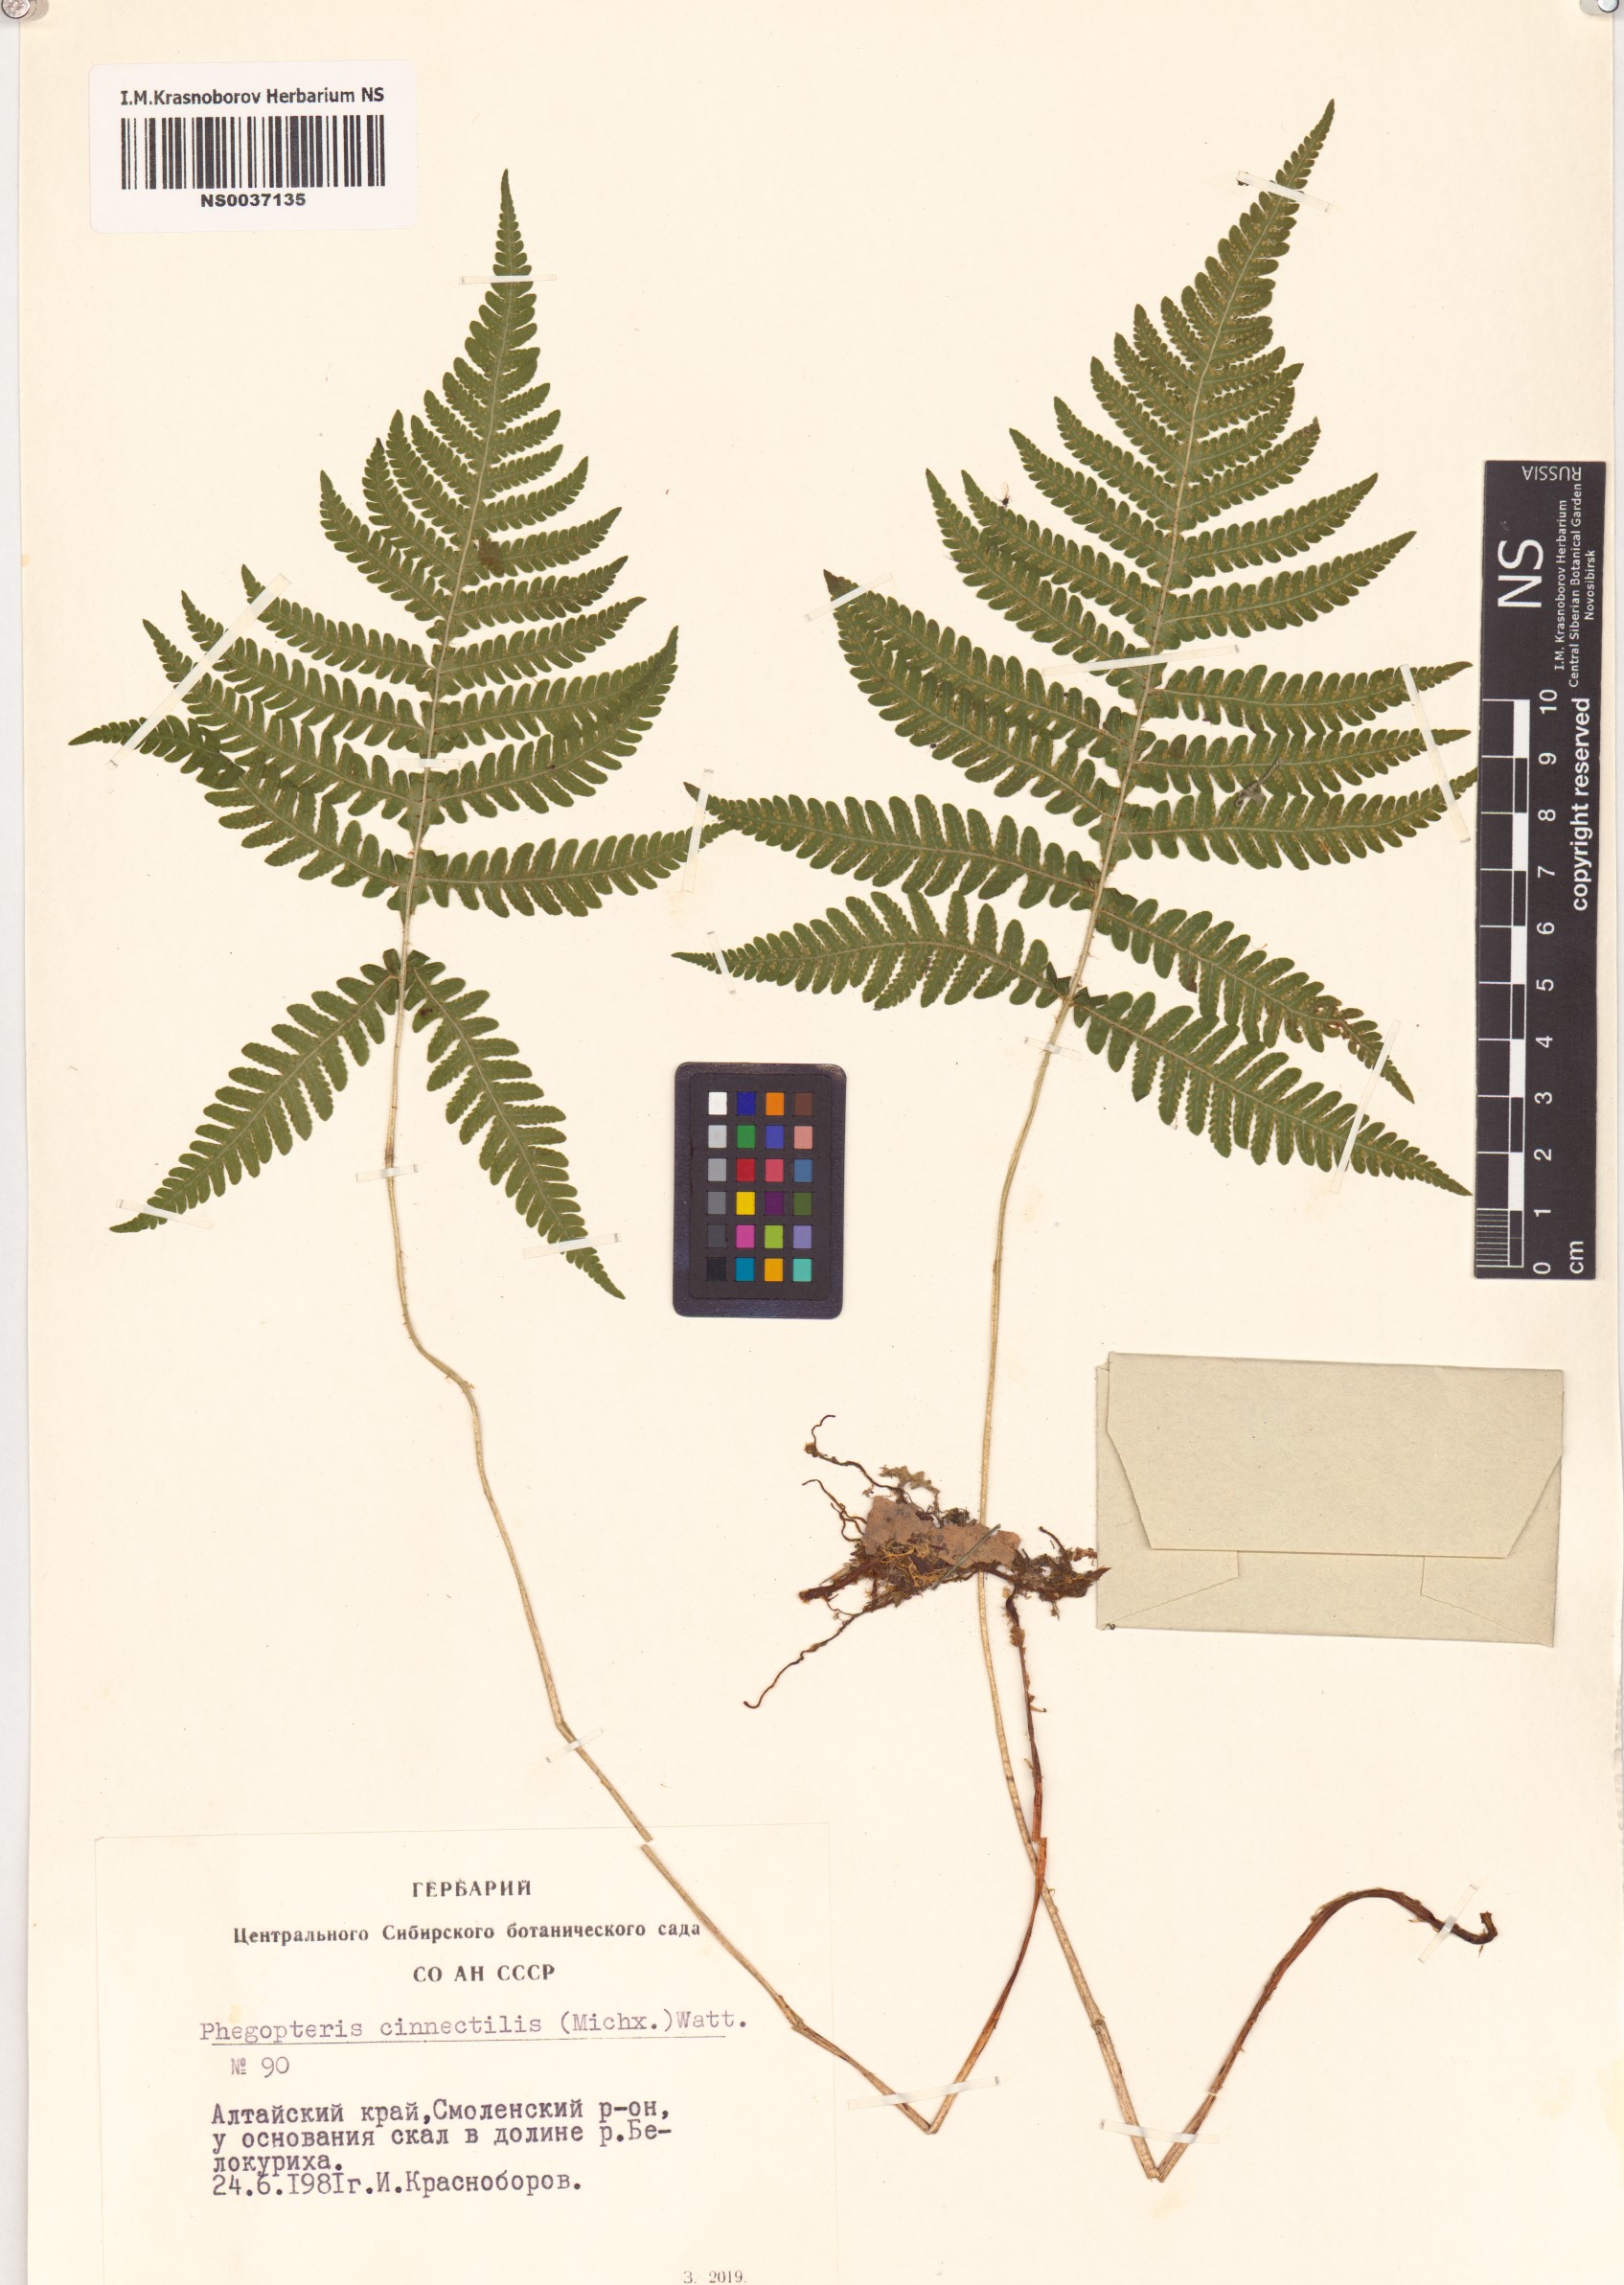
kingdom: Plantae
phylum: Tracheophyta
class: Polypodiopsida
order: Polypodiales
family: Thelypteridaceae
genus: Phegopteris
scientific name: Phegopteris connectilis
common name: Beech fern
